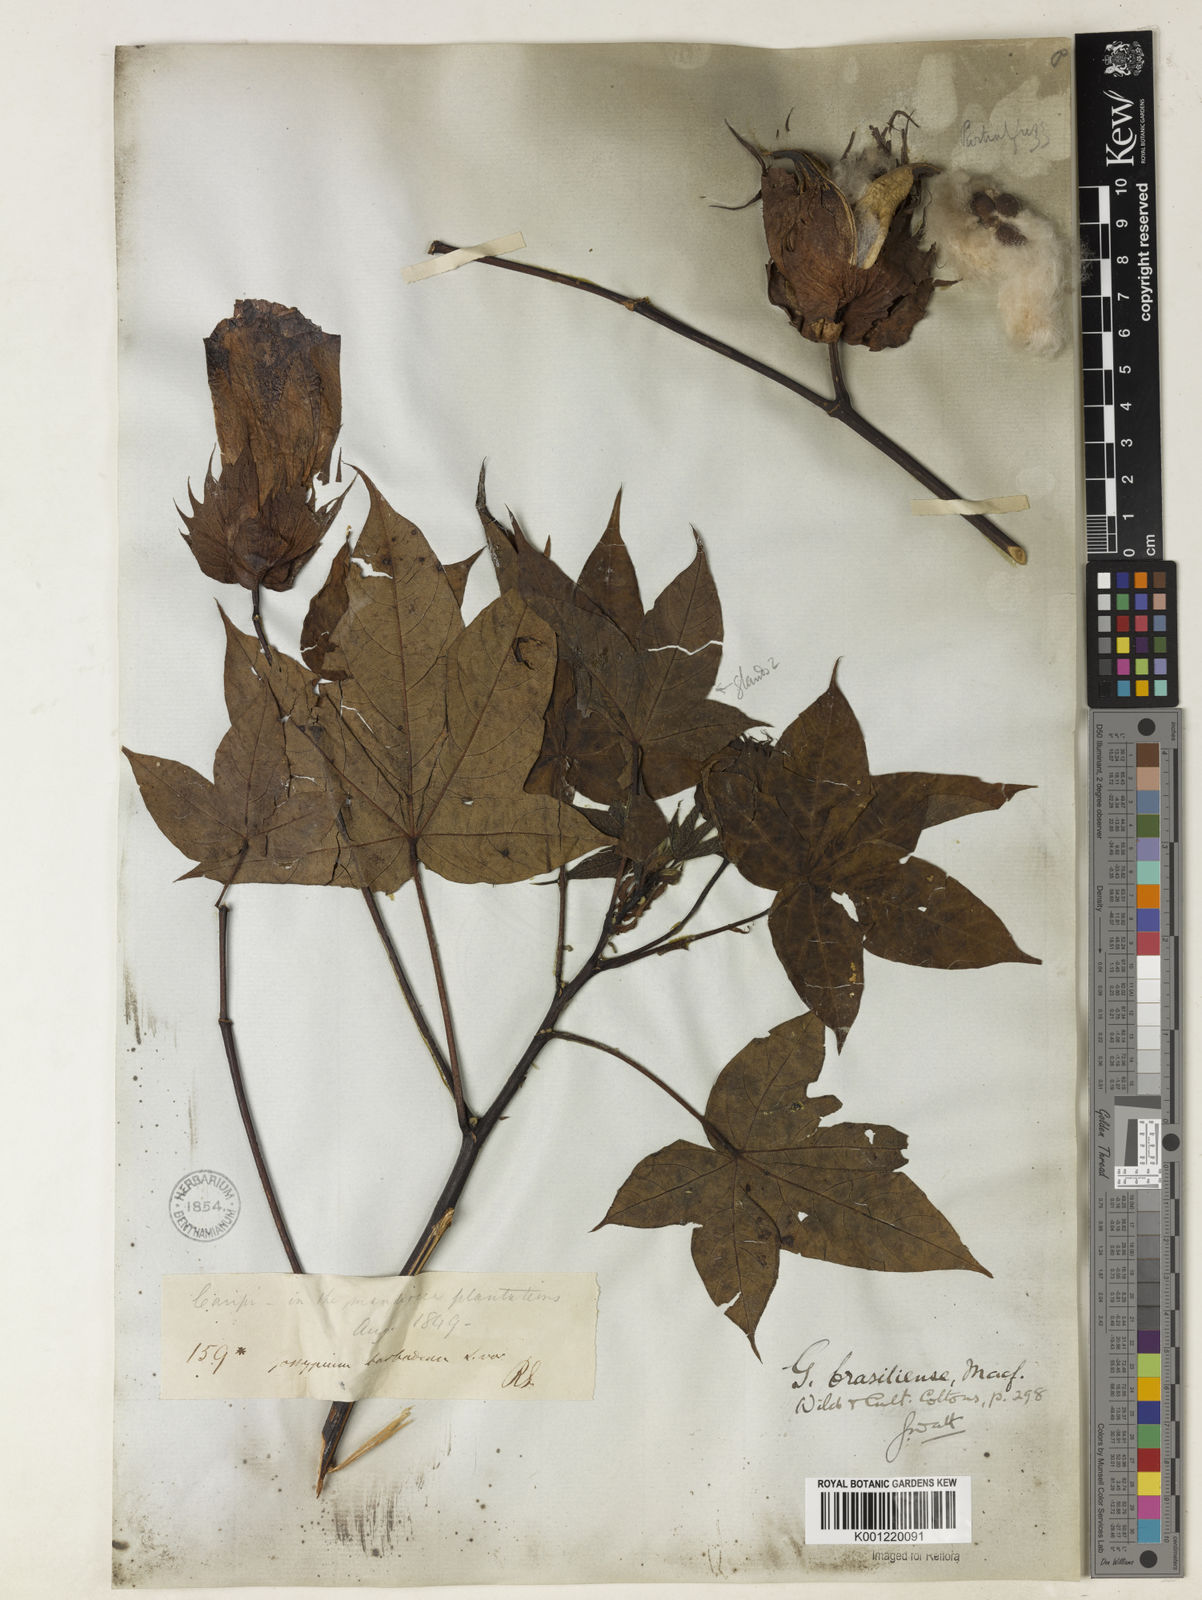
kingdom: Plantae
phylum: Tracheophyta
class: Magnoliopsida
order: Malvales
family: Malvaceae
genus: Gossypium
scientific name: Gossypium barbadense
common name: Creole cotton
